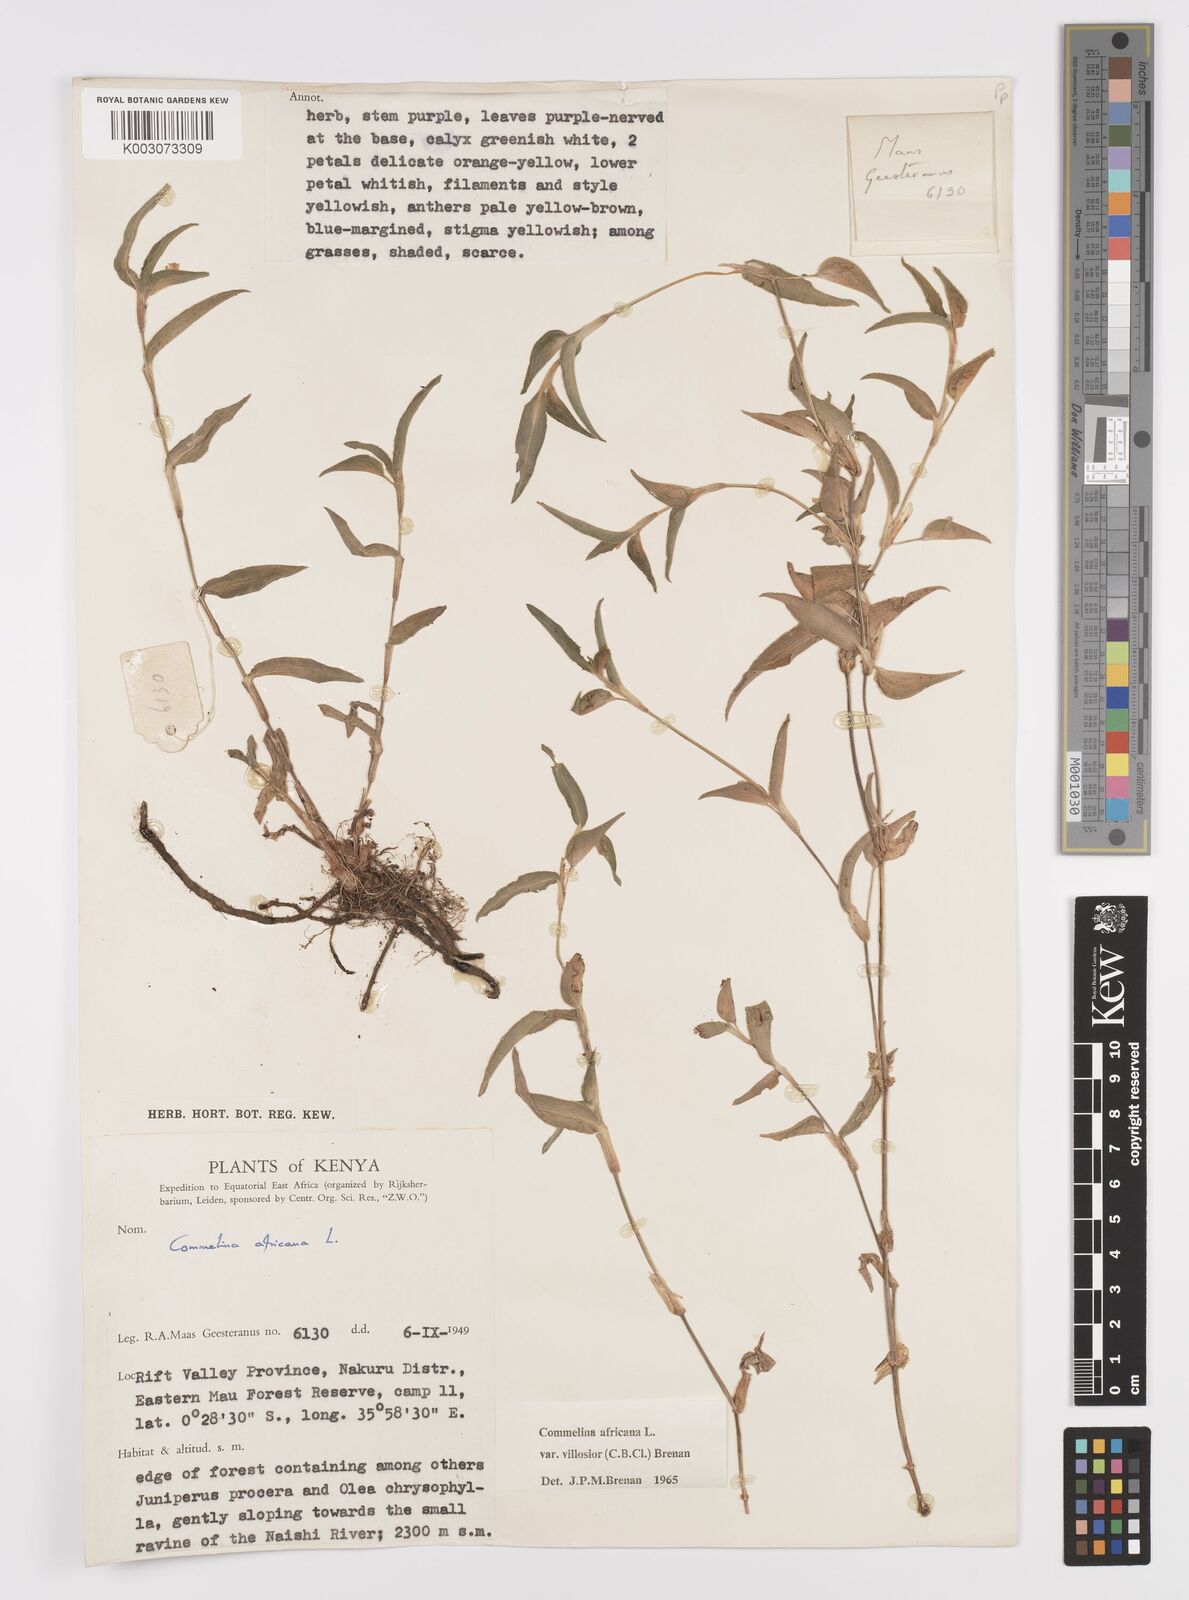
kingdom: Plantae
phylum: Tracheophyta
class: Liliopsida
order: Commelinales
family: Commelinaceae
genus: Commelina
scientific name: Commelina africana
